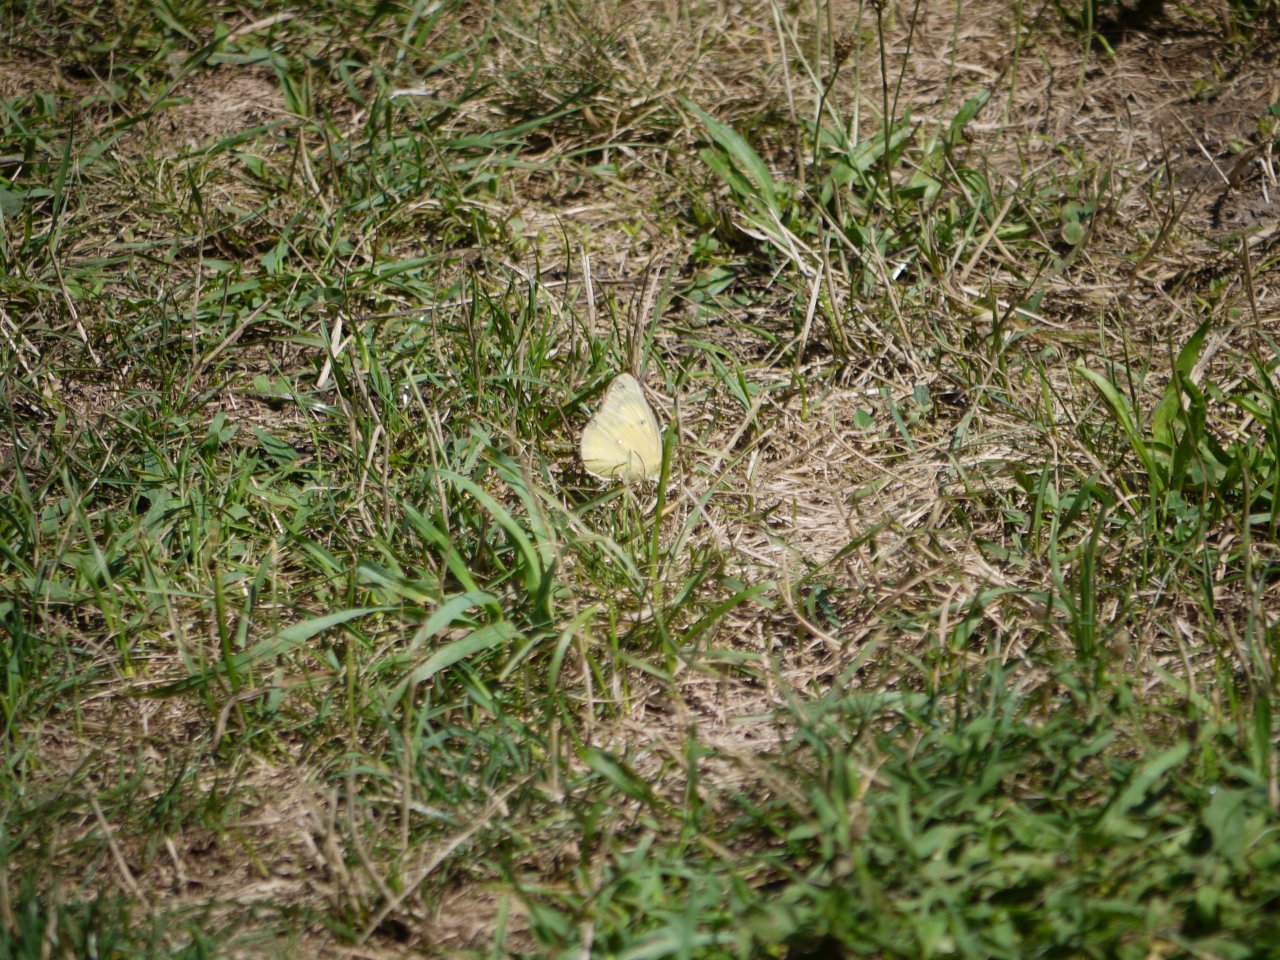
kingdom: Animalia
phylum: Arthropoda
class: Insecta
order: Lepidoptera
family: Pieridae
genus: Colias
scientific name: Colias philodice
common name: Clouded Sulphur
